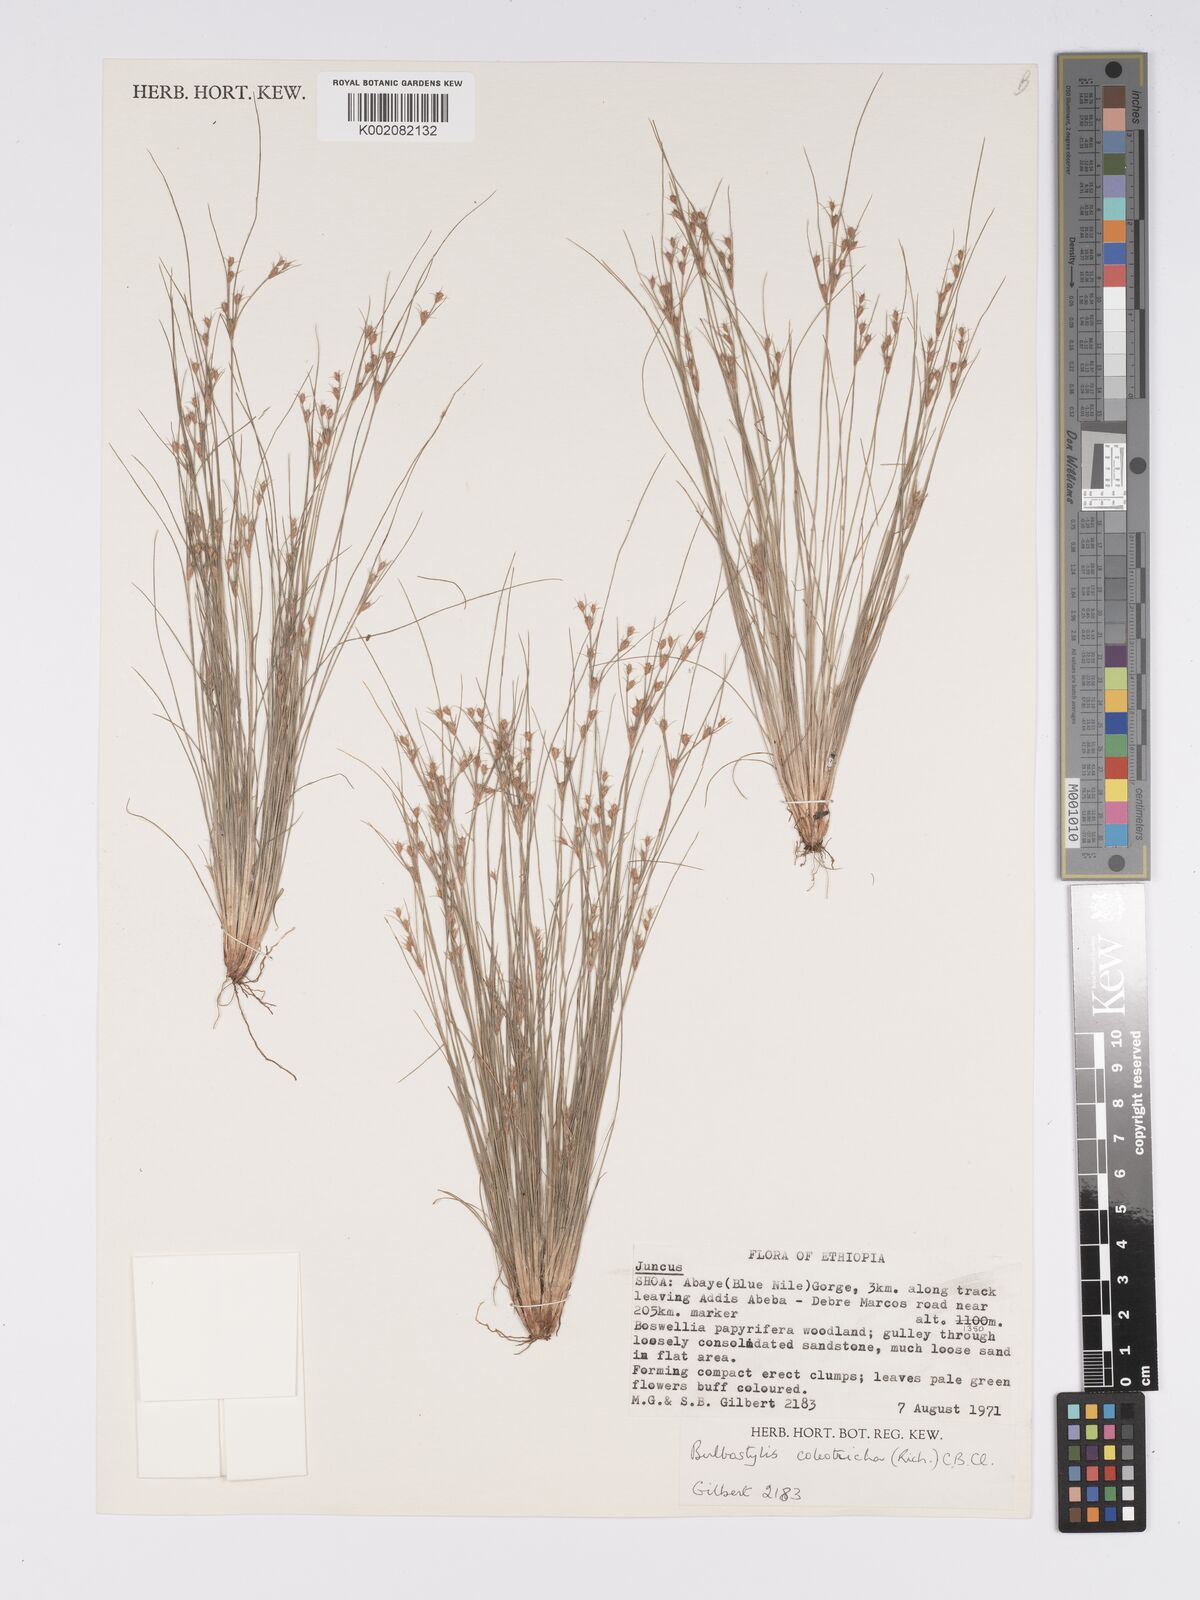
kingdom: Plantae
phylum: Tracheophyta
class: Liliopsida
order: Poales
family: Cyperaceae
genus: Bulbostylis
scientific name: Bulbostylis coleotricha
